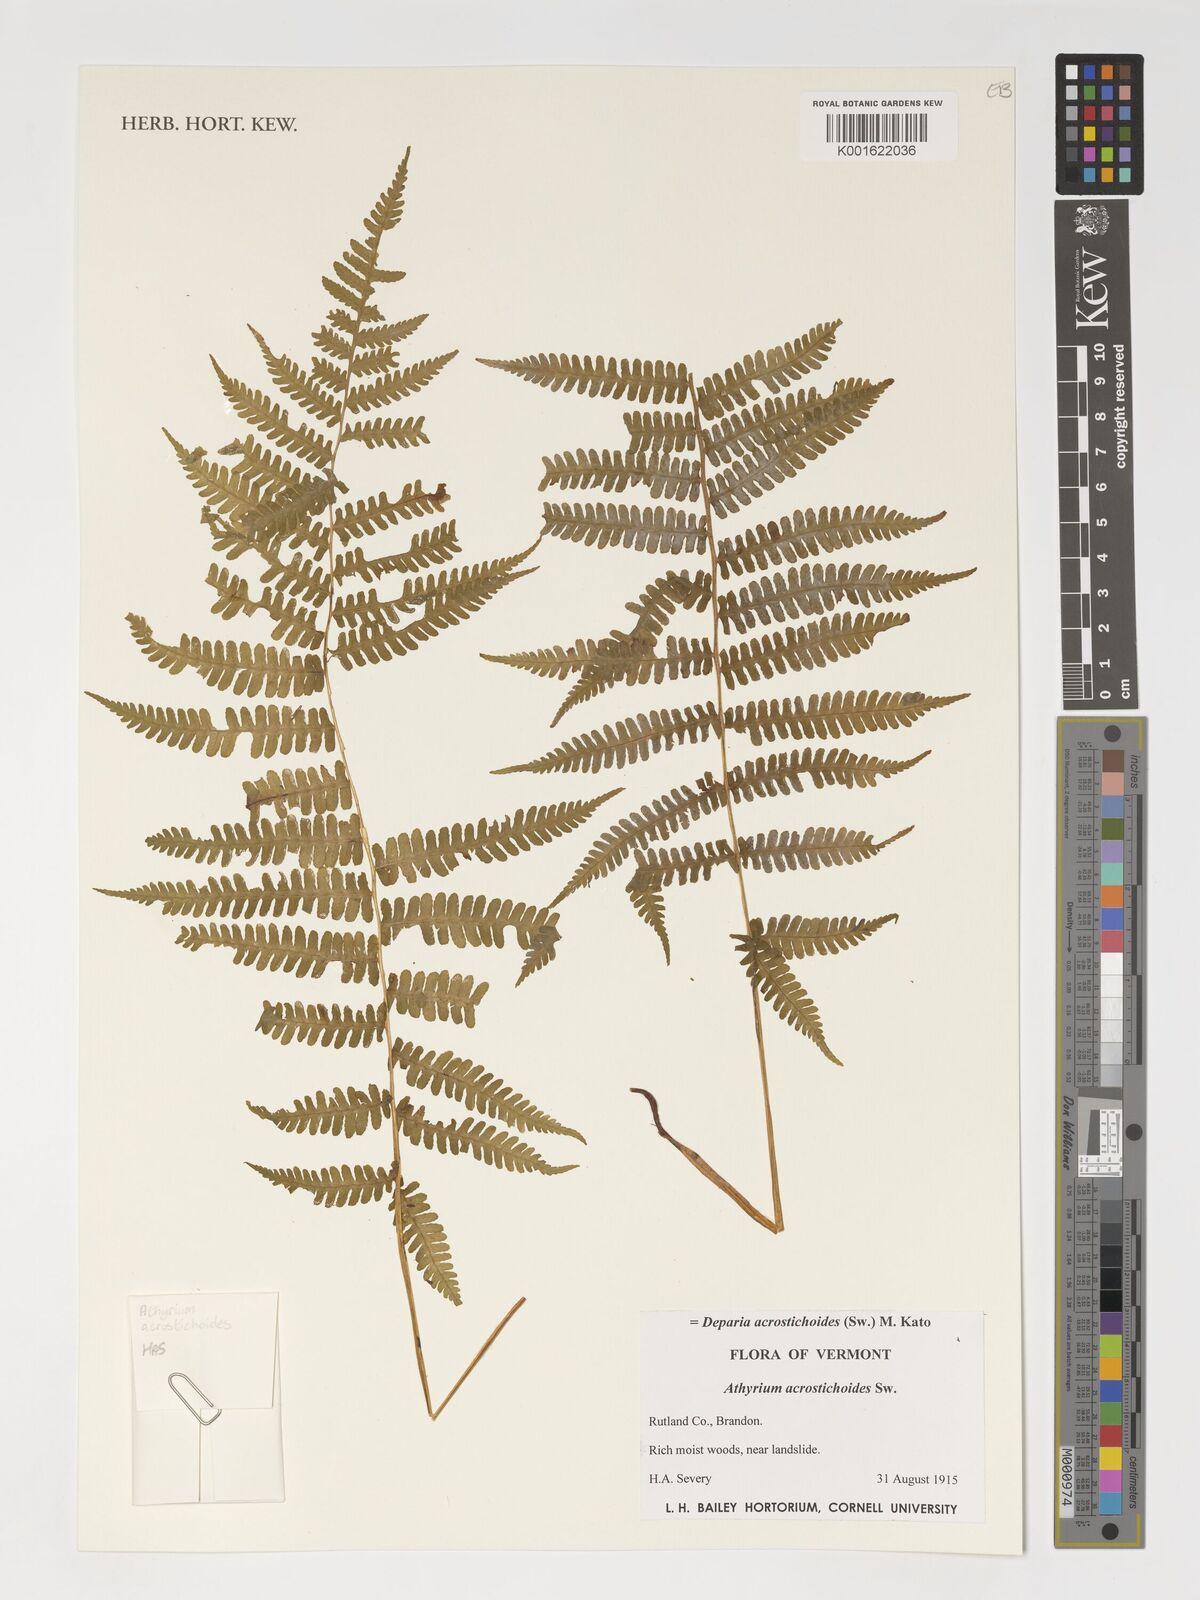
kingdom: Plantae
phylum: Tracheophyta
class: Polypodiopsida
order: Polypodiales
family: Athyriaceae
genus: Deparia
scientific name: Deparia acrostichoides
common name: Silver false spleenwort
